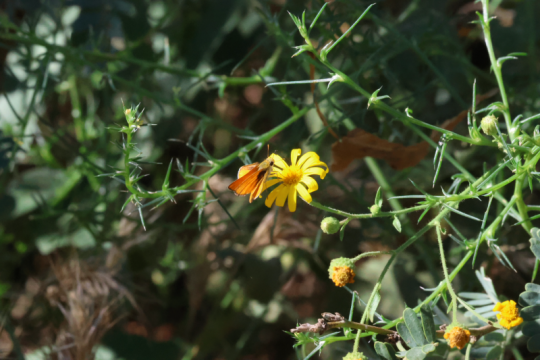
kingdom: Animalia
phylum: Arthropoda
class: Insecta
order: Lepidoptera
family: Hesperiidae
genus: Copaeodes
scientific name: Copaeodes aurantiaca
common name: Orange Skipperling
